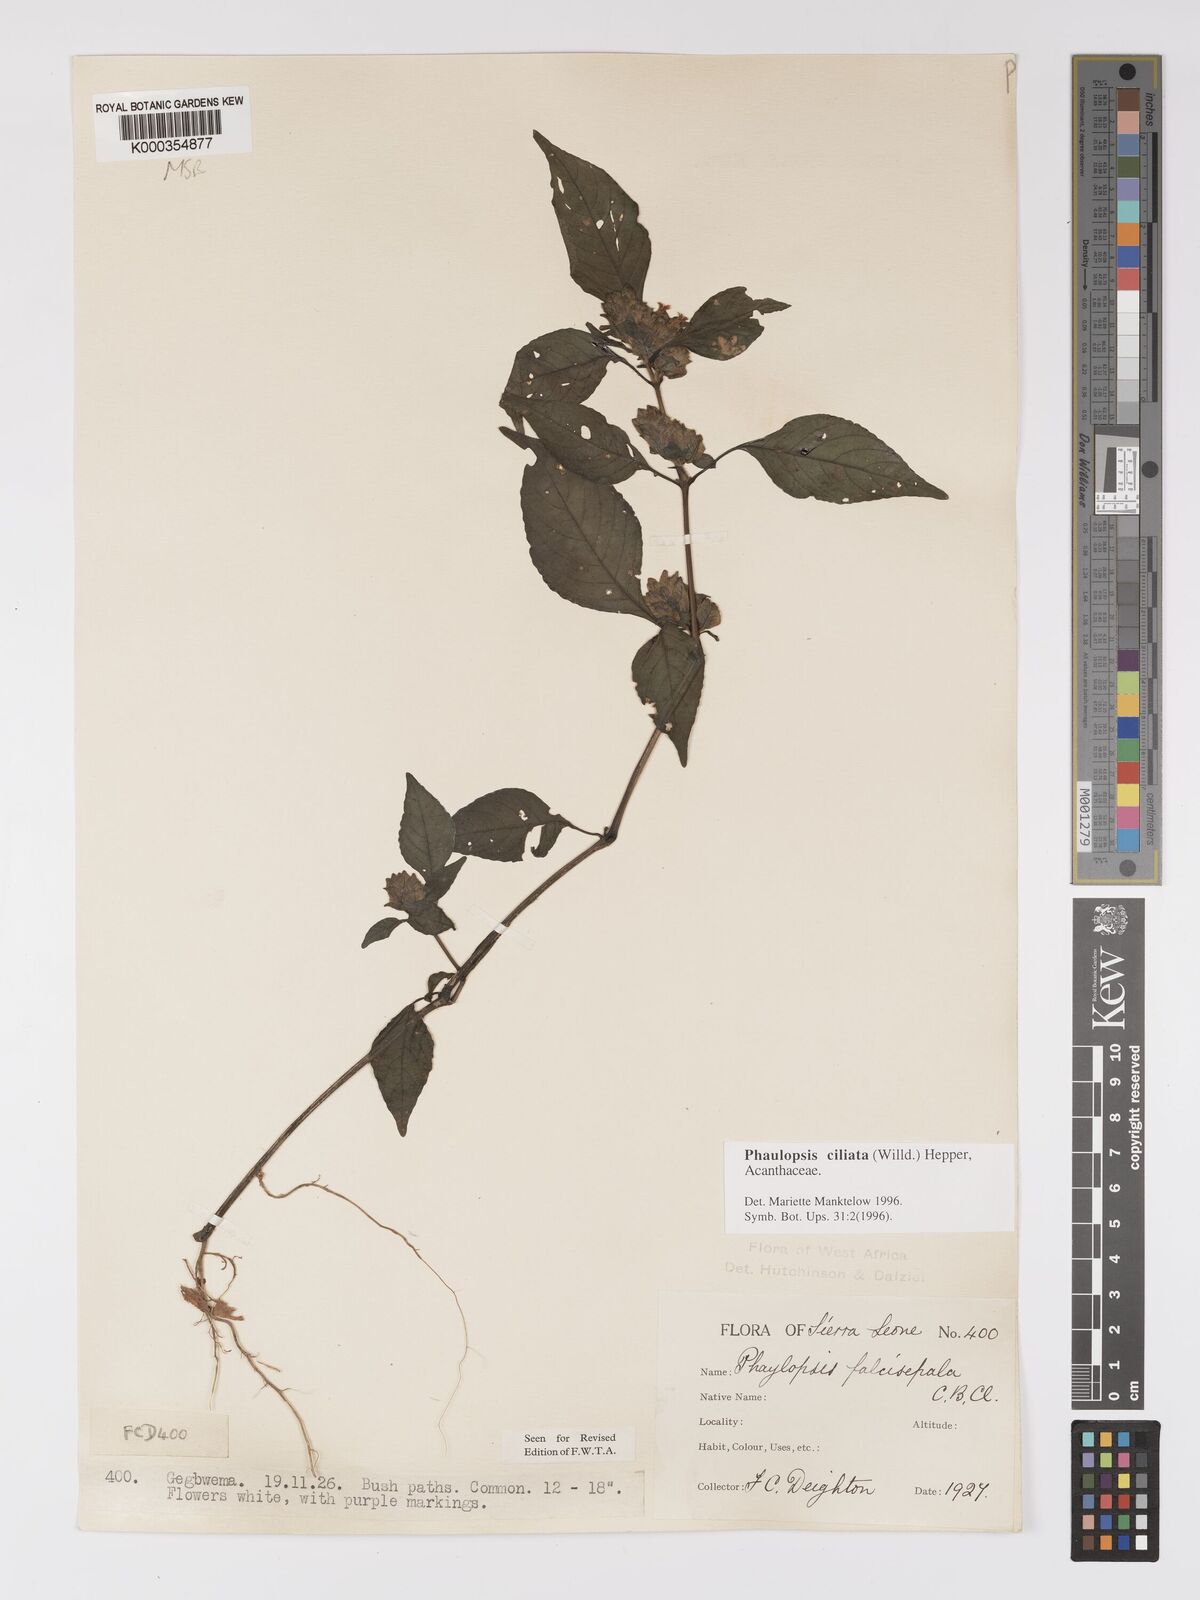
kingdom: Plantae
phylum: Tracheophyta
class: Magnoliopsida
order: Lamiales
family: Acanthaceae
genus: Phaulopsis
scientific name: Phaulopsis ciliata
